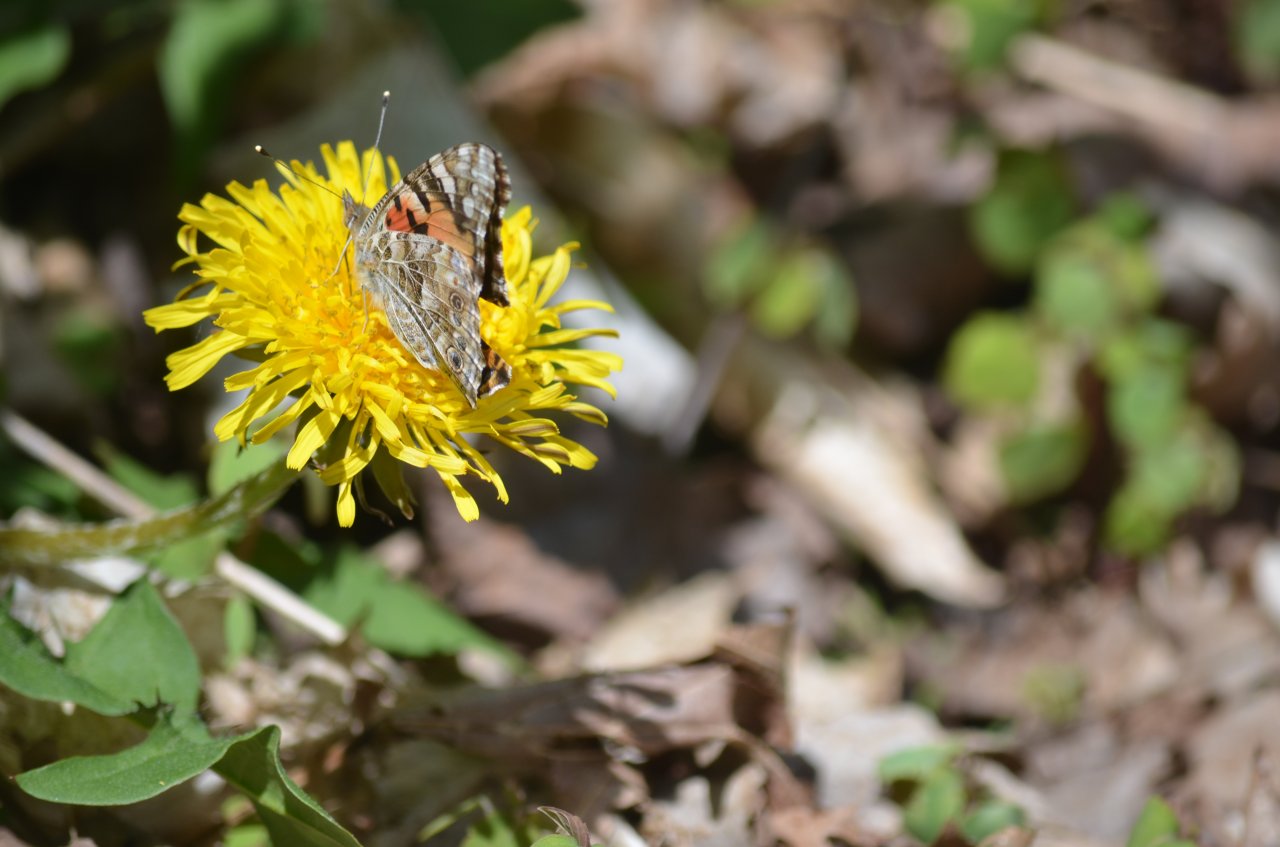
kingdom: Animalia
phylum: Arthropoda
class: Insecta
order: Lepidoptera
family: Nymphalidae
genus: Vanessa
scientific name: Vanessa cardui
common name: Painted Lady
